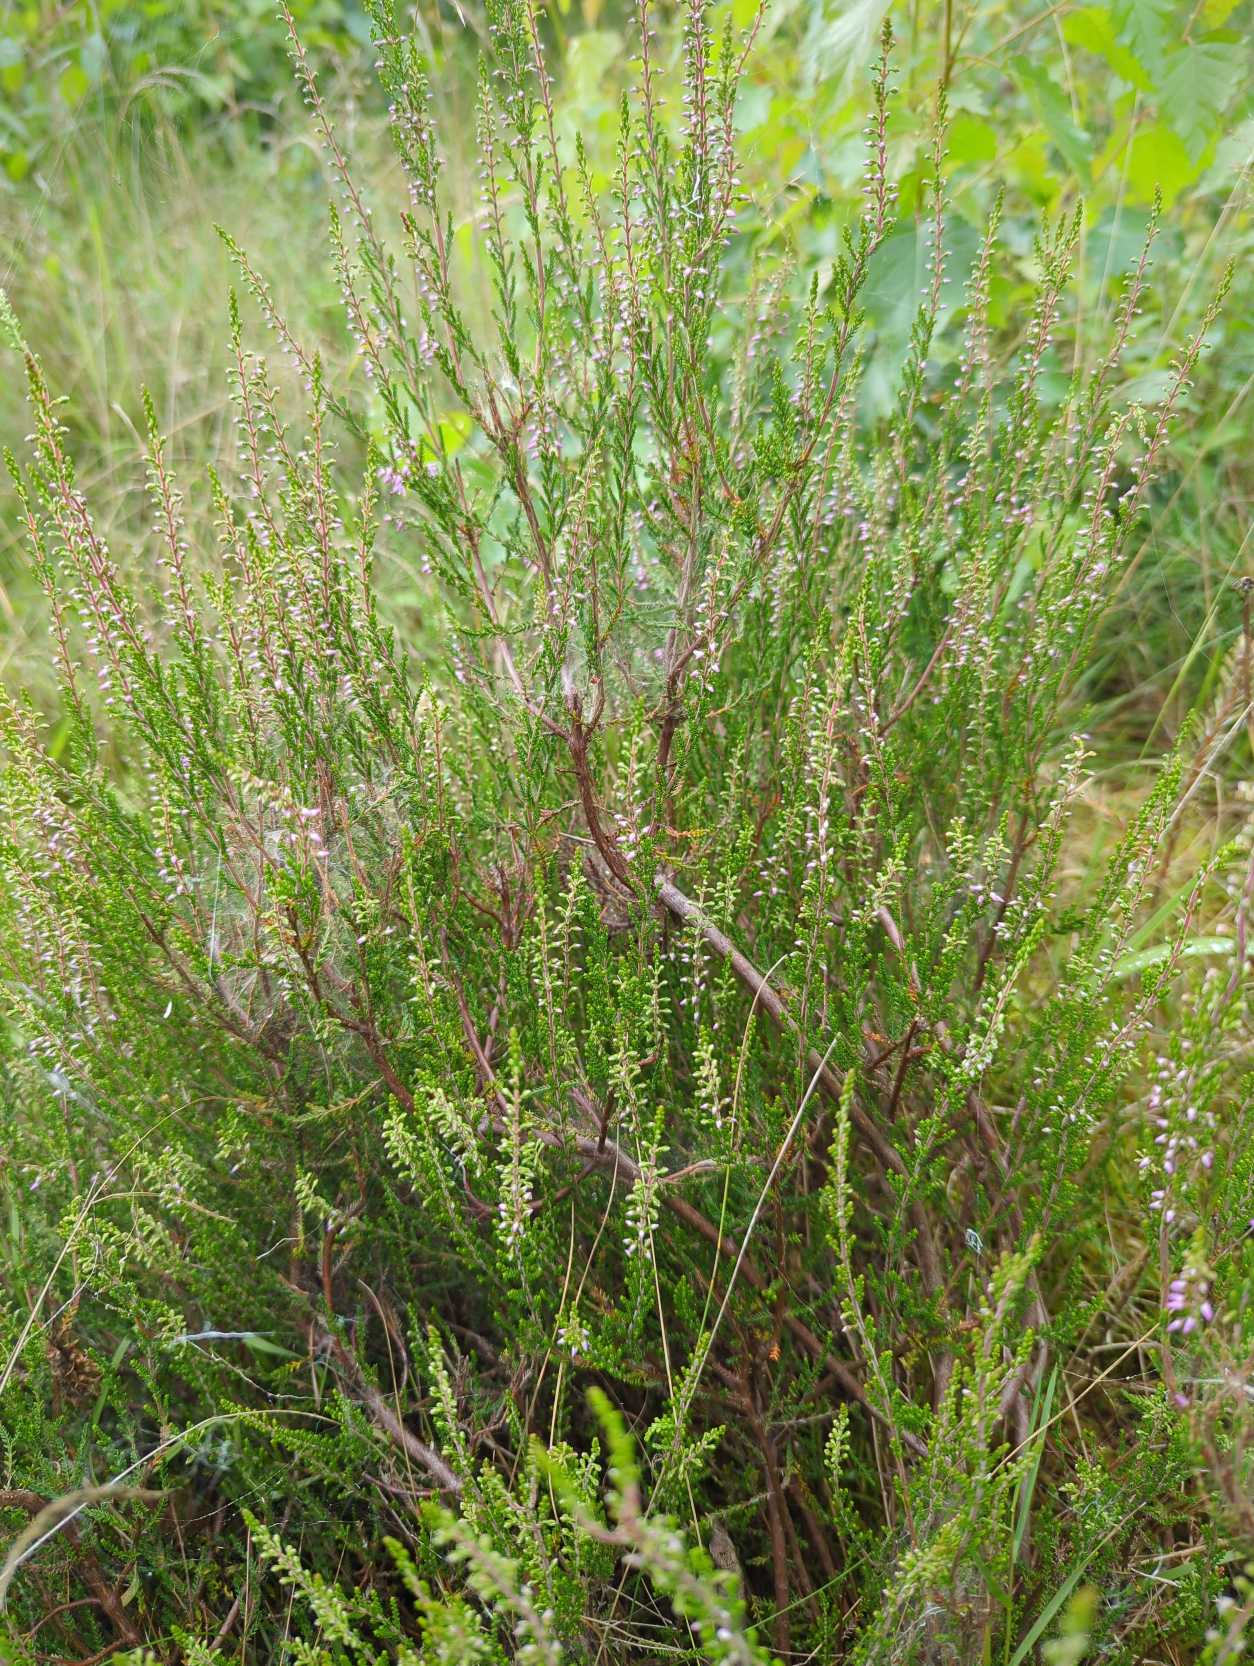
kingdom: Plantae
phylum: Tracheophyta
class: Magnoliopsida
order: Ericales
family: Ericaceae
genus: Calluna
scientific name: Calluna vulgaris
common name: Hedelyng
